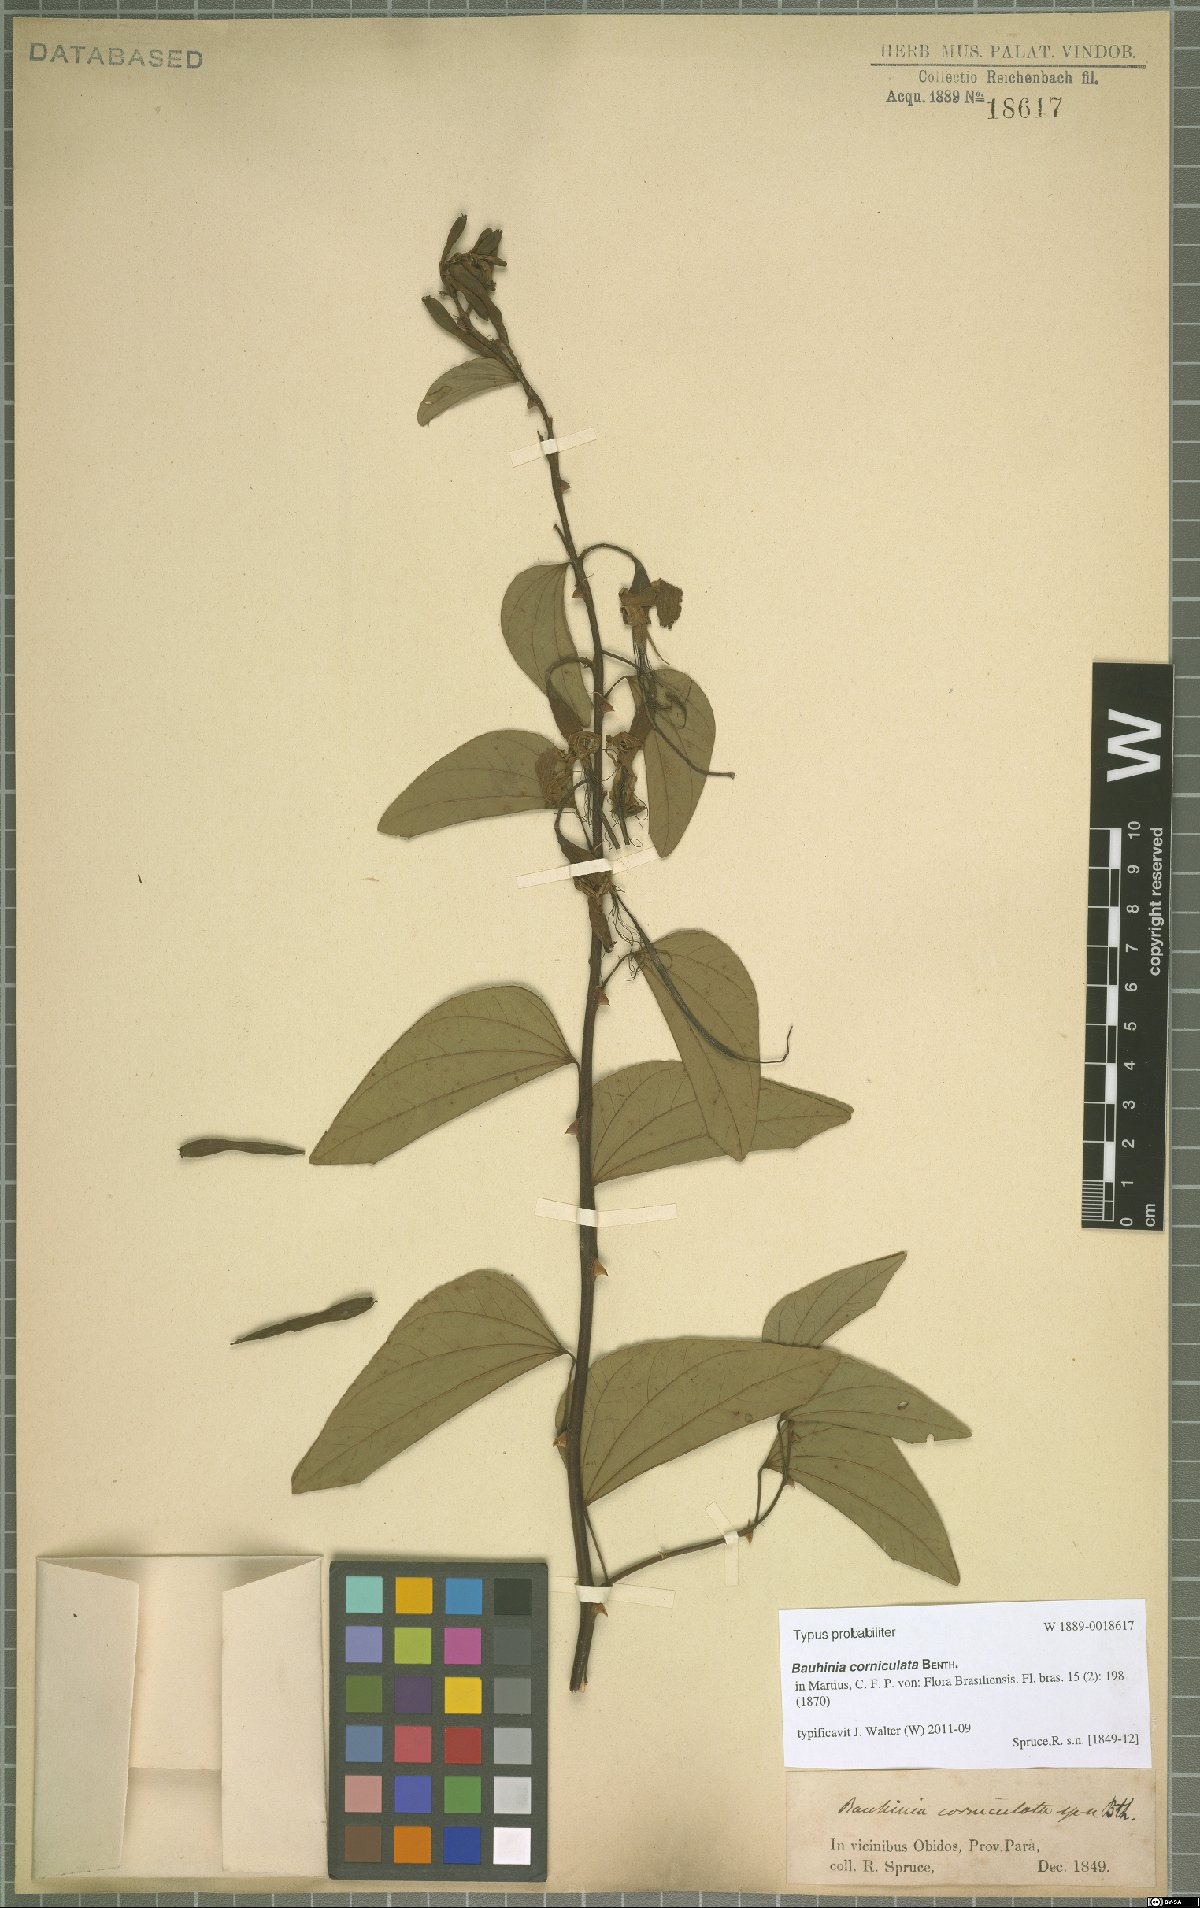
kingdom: Plantae
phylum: Tracheophyta
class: Magnoliopsida
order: Fabales
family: Fabaceae
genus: Bauhinia
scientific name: Bauhinia corniculata
